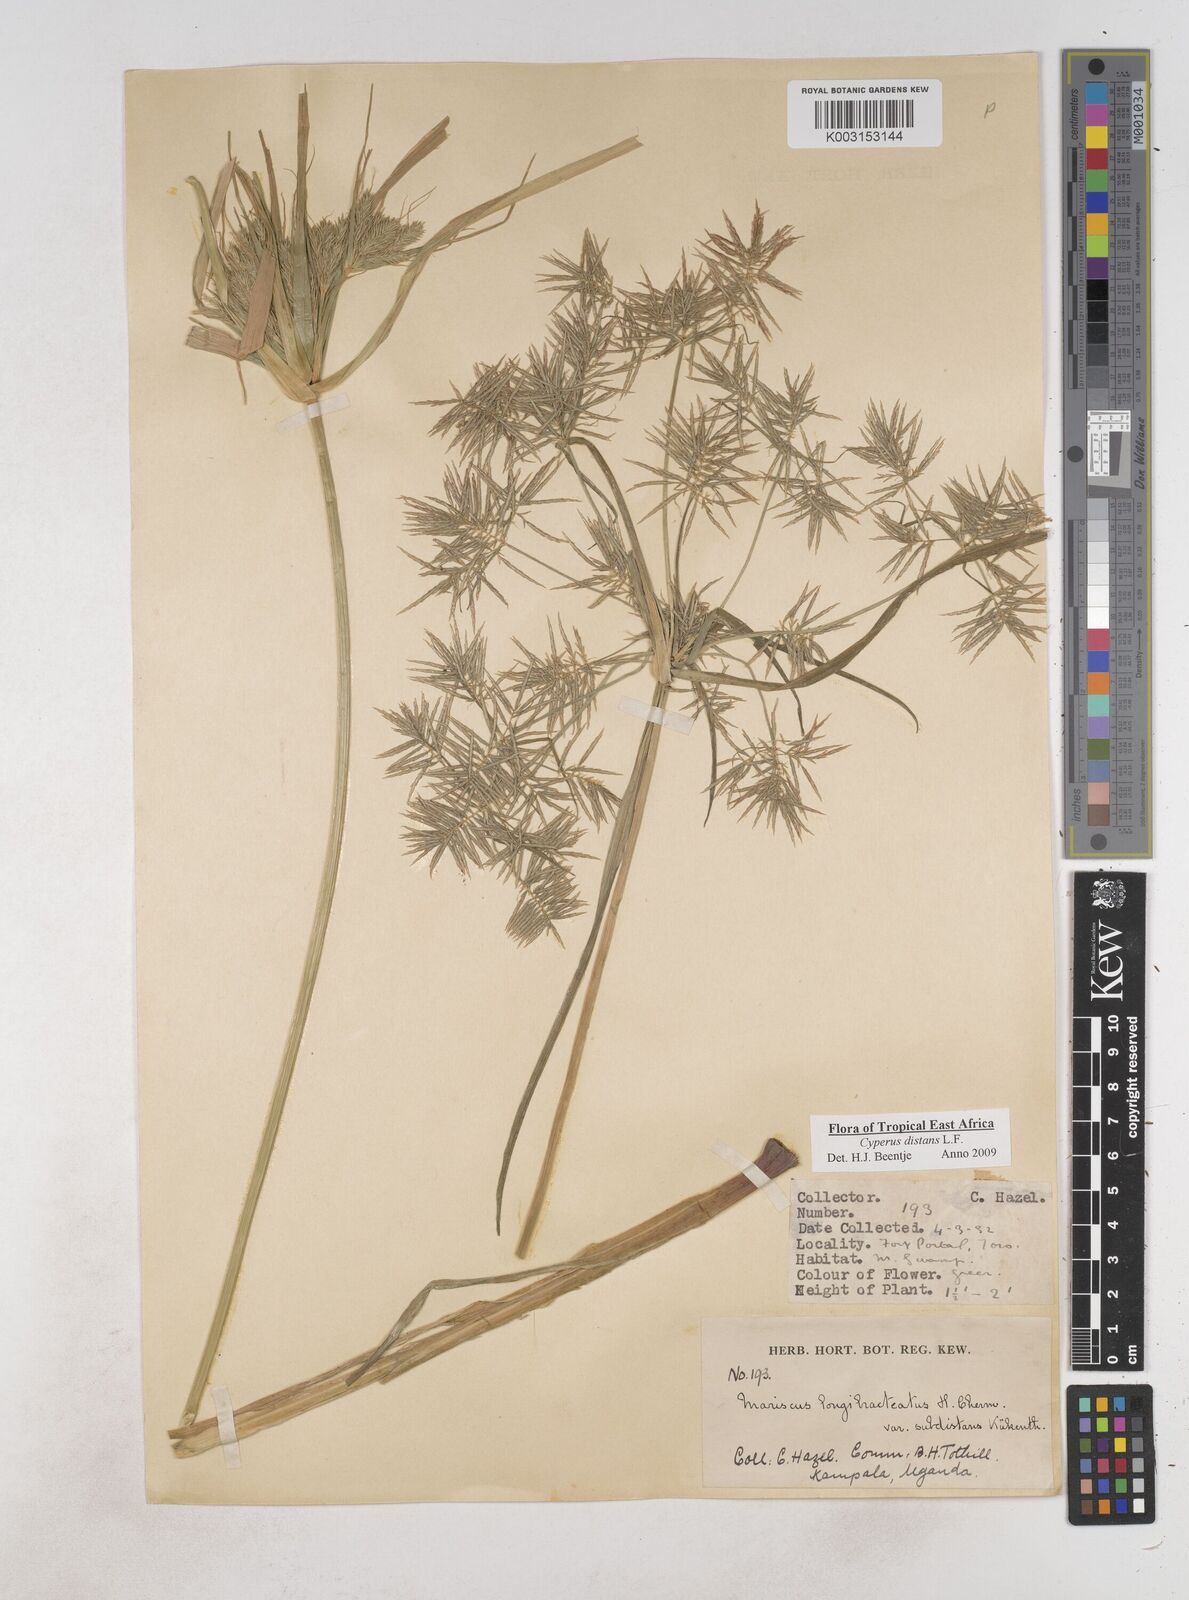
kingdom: Plantae
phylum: Tracheophyta
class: Liliopsida
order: Poales
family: Cyperaceae
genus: Cyperus
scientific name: Cyperus distans
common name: Slender cyperus
